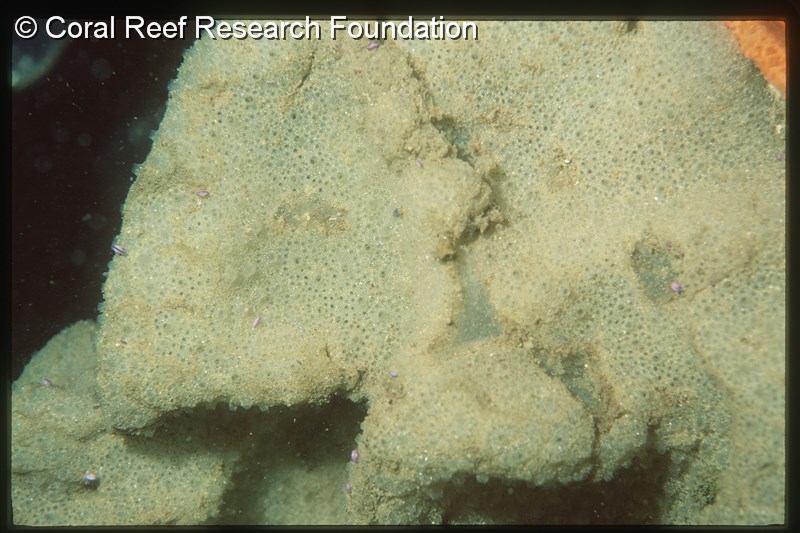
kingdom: Animalia
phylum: Chordata
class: Ascidiacea
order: Aplousobranchia
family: Polyclinidae
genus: Polyclinum
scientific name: Polyclinum isipingense
